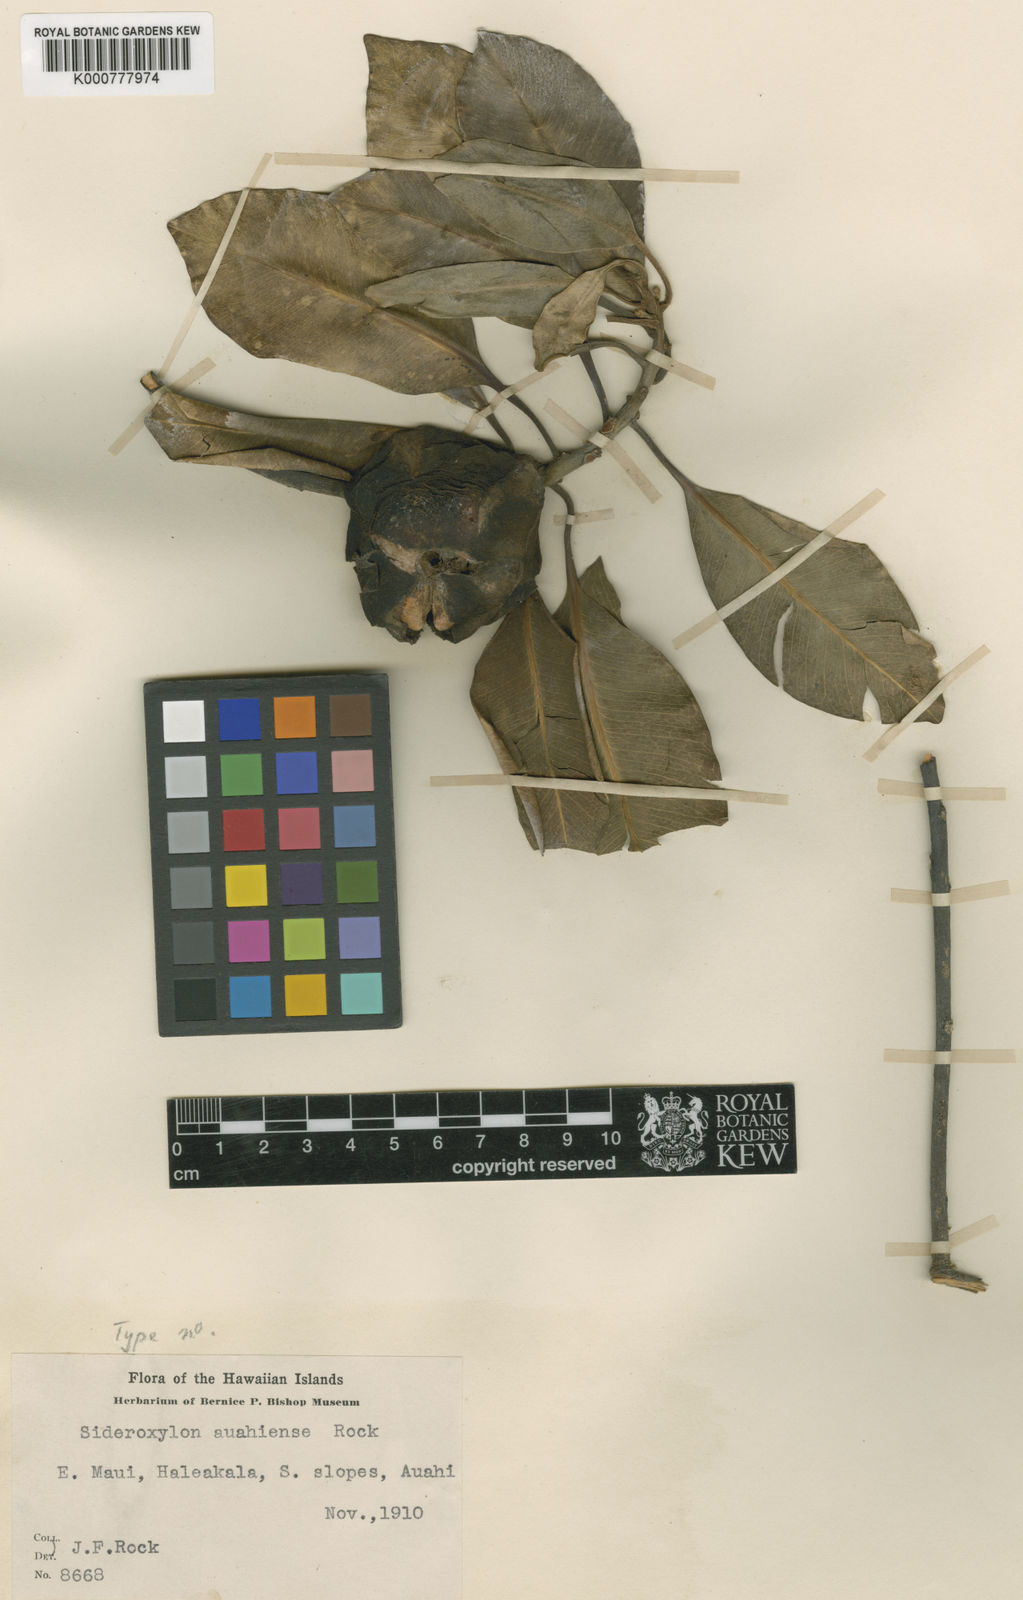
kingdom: Plantae
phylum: Tracheophyta
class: Magnoliopsida
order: Ericales
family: Sapotaceae
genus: Planchonella
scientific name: Planchonella spathulata
